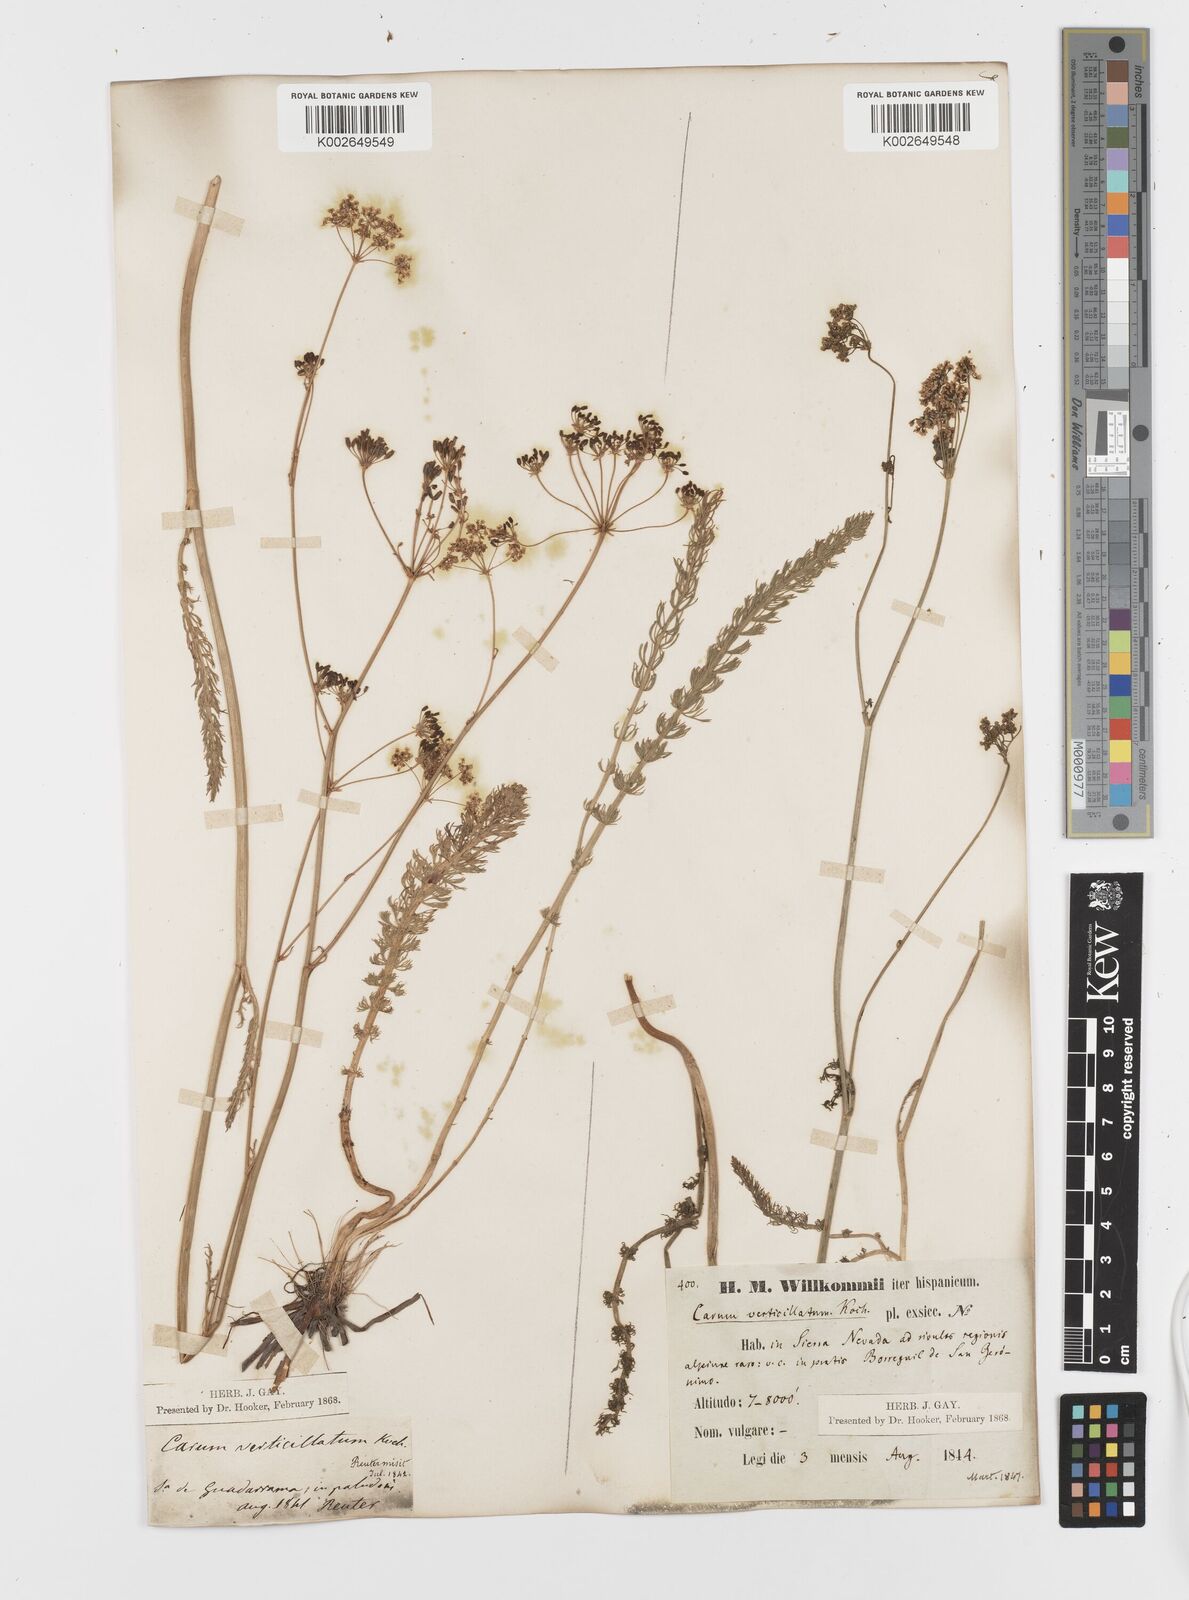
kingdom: Plantae
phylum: Tracheophyta
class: Magnoliopsida
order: Apiales
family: Apiaceae
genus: Trocdaris
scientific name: Trocdaris verticillatum
